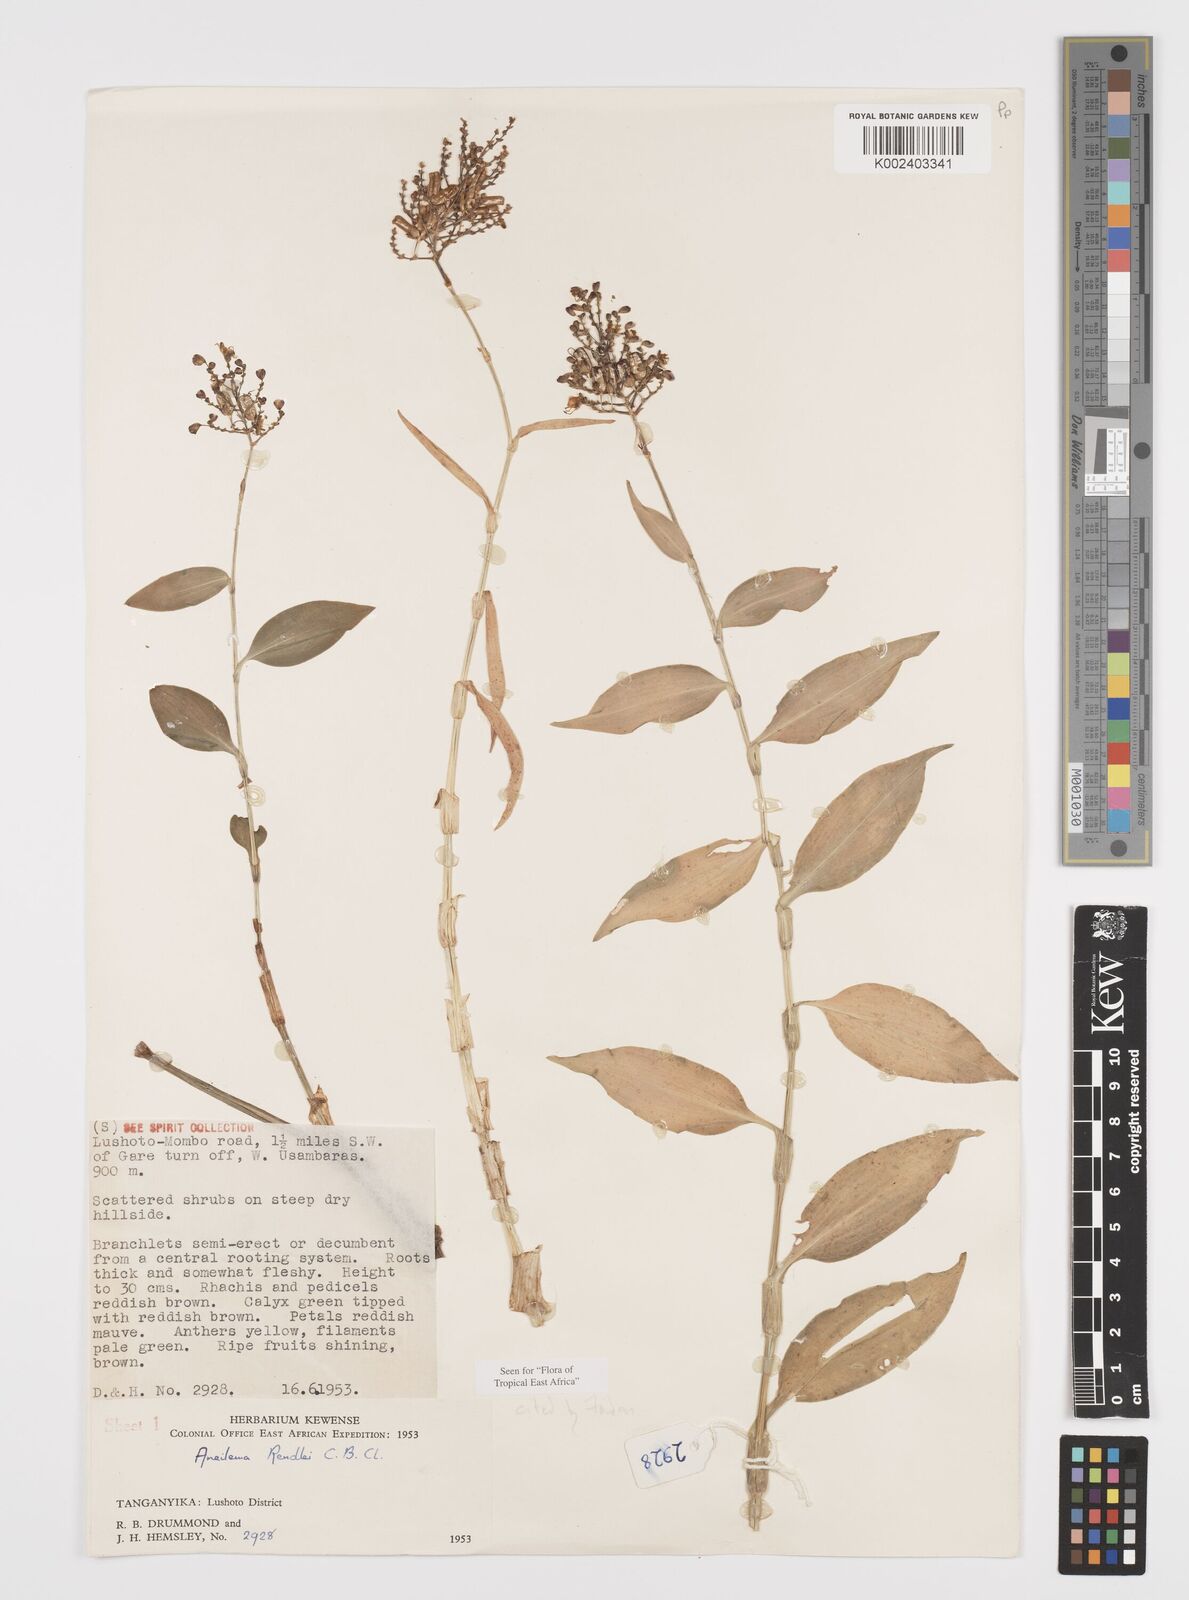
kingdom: Plantae
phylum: Tracheophyta
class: Liliopsida
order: Commelinales
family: Commelinaceae
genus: Aneilema
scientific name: Aneilema rendlei
